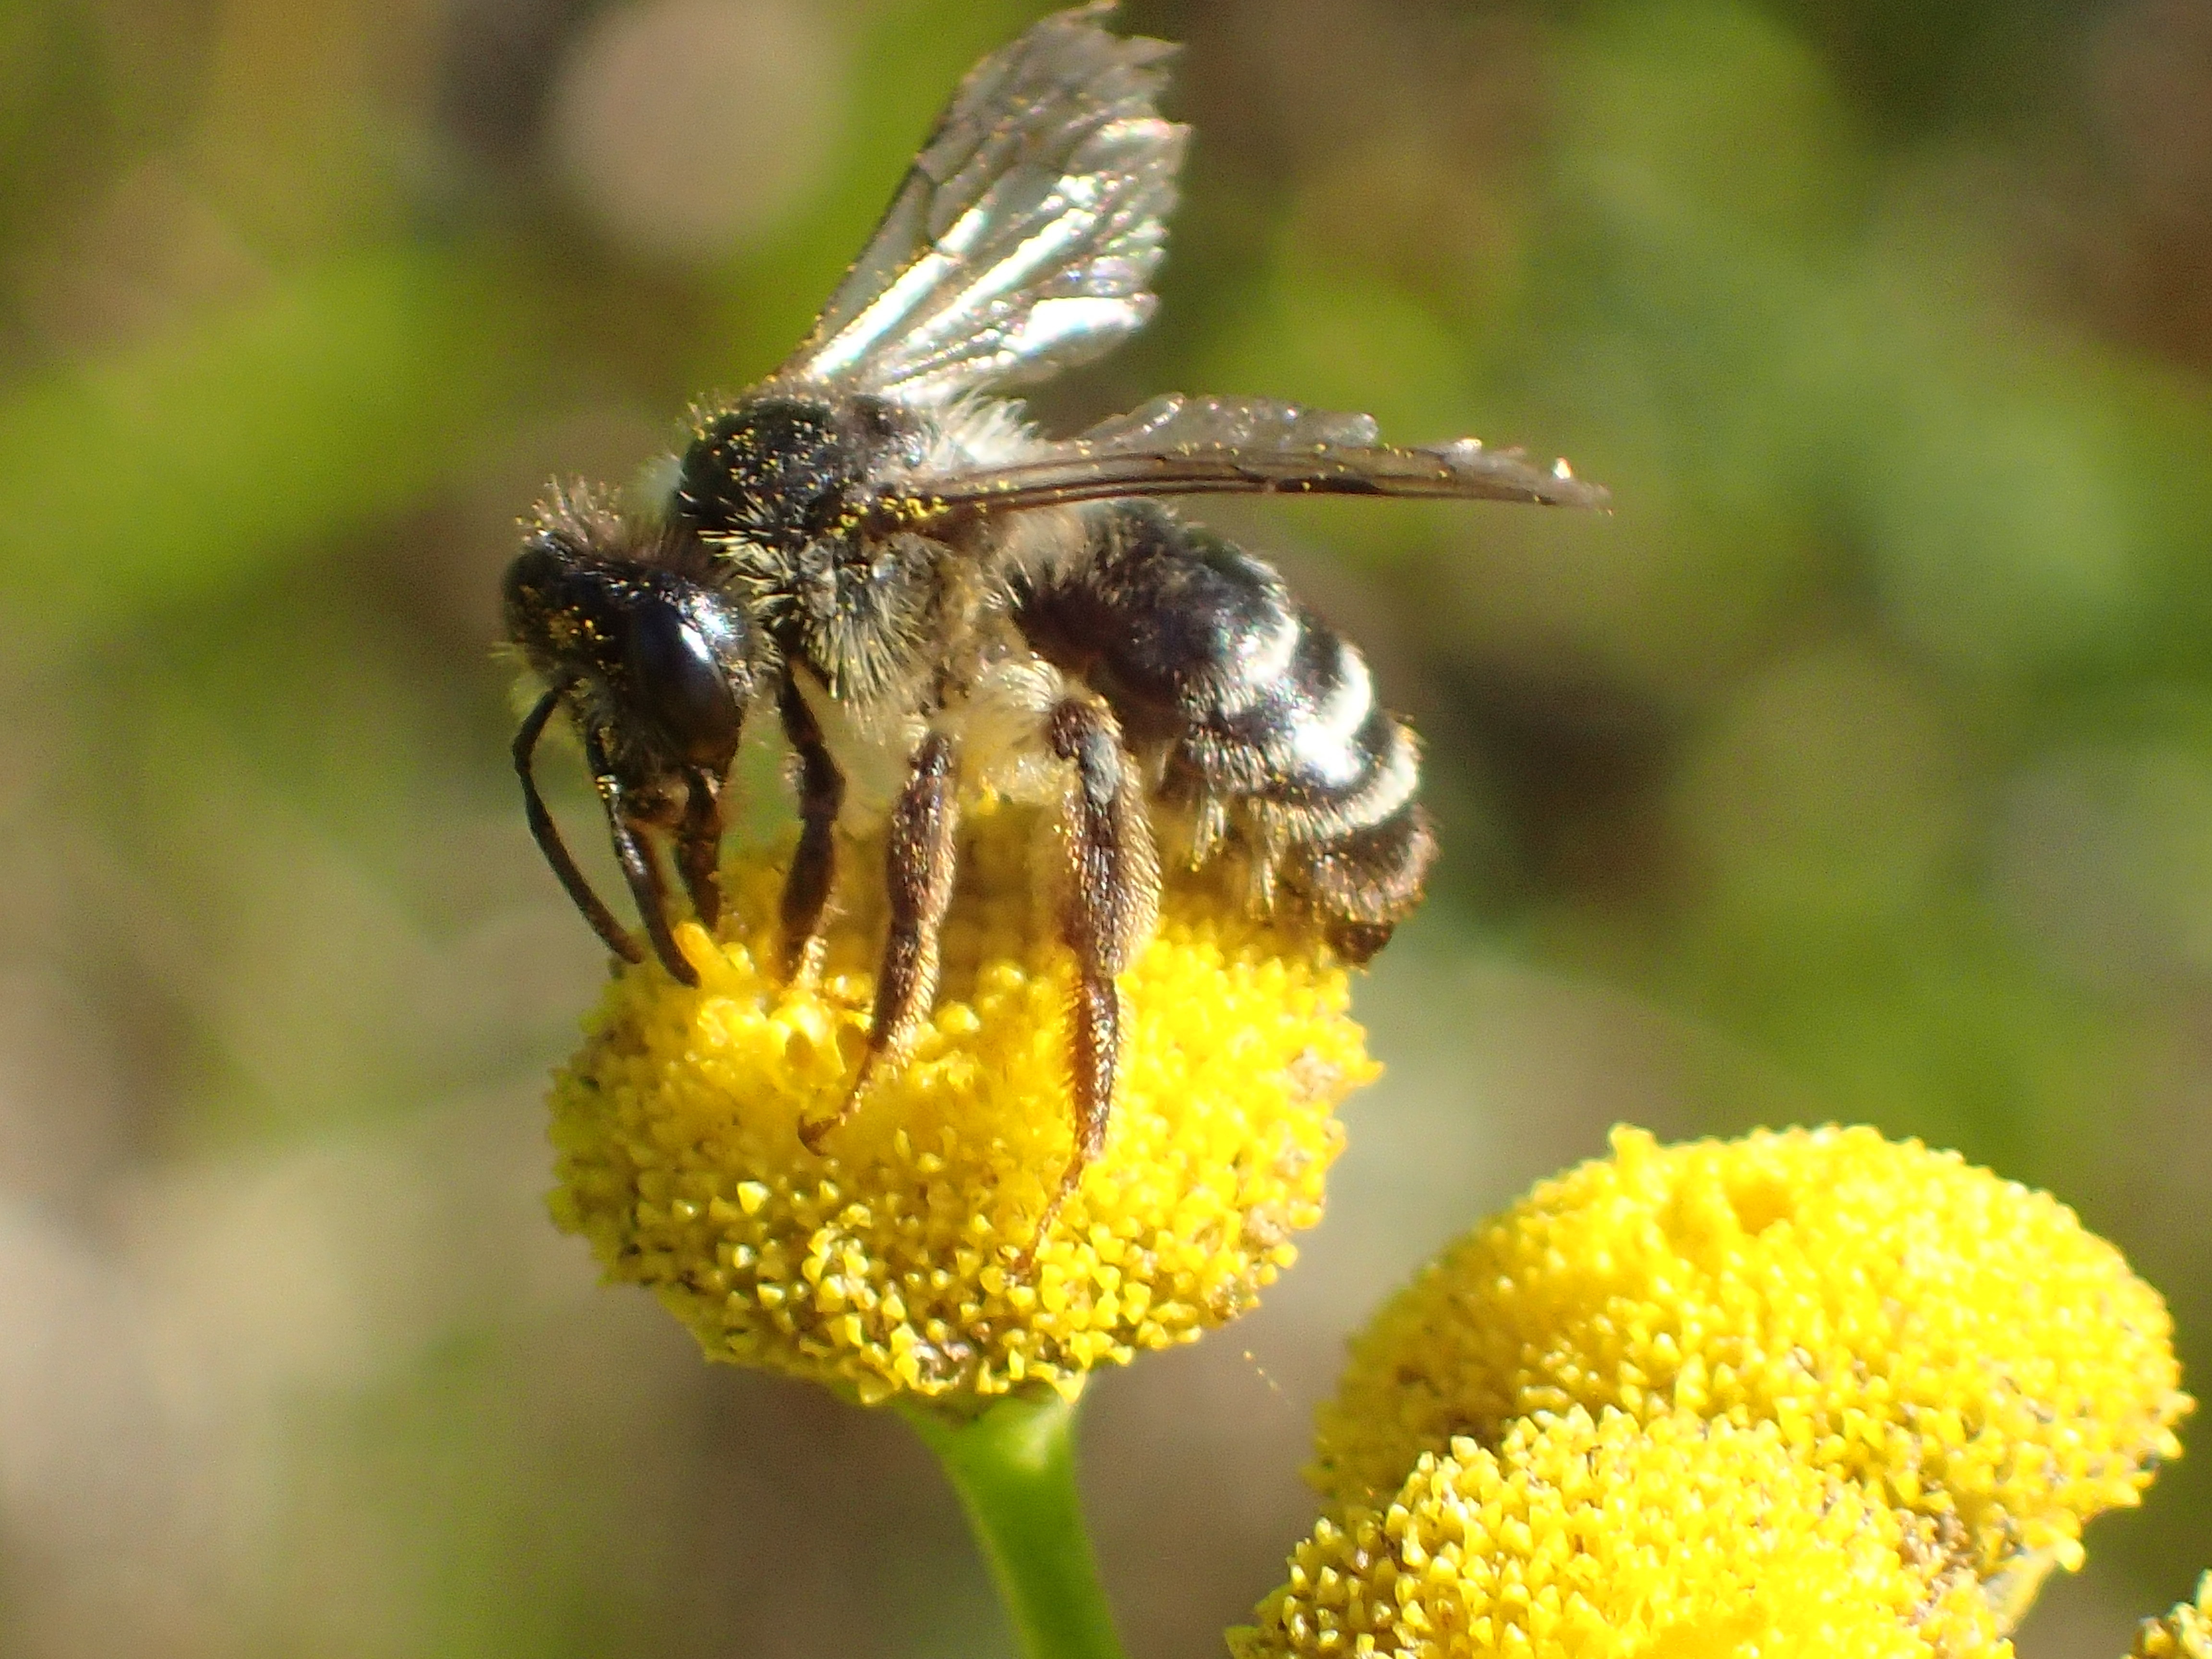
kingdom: Animalia
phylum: Arthropoda
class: Insecta
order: Hymenoptera
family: Andrenidae
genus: Andrena
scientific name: Andrena denticulata
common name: Grey-banded mining bee
